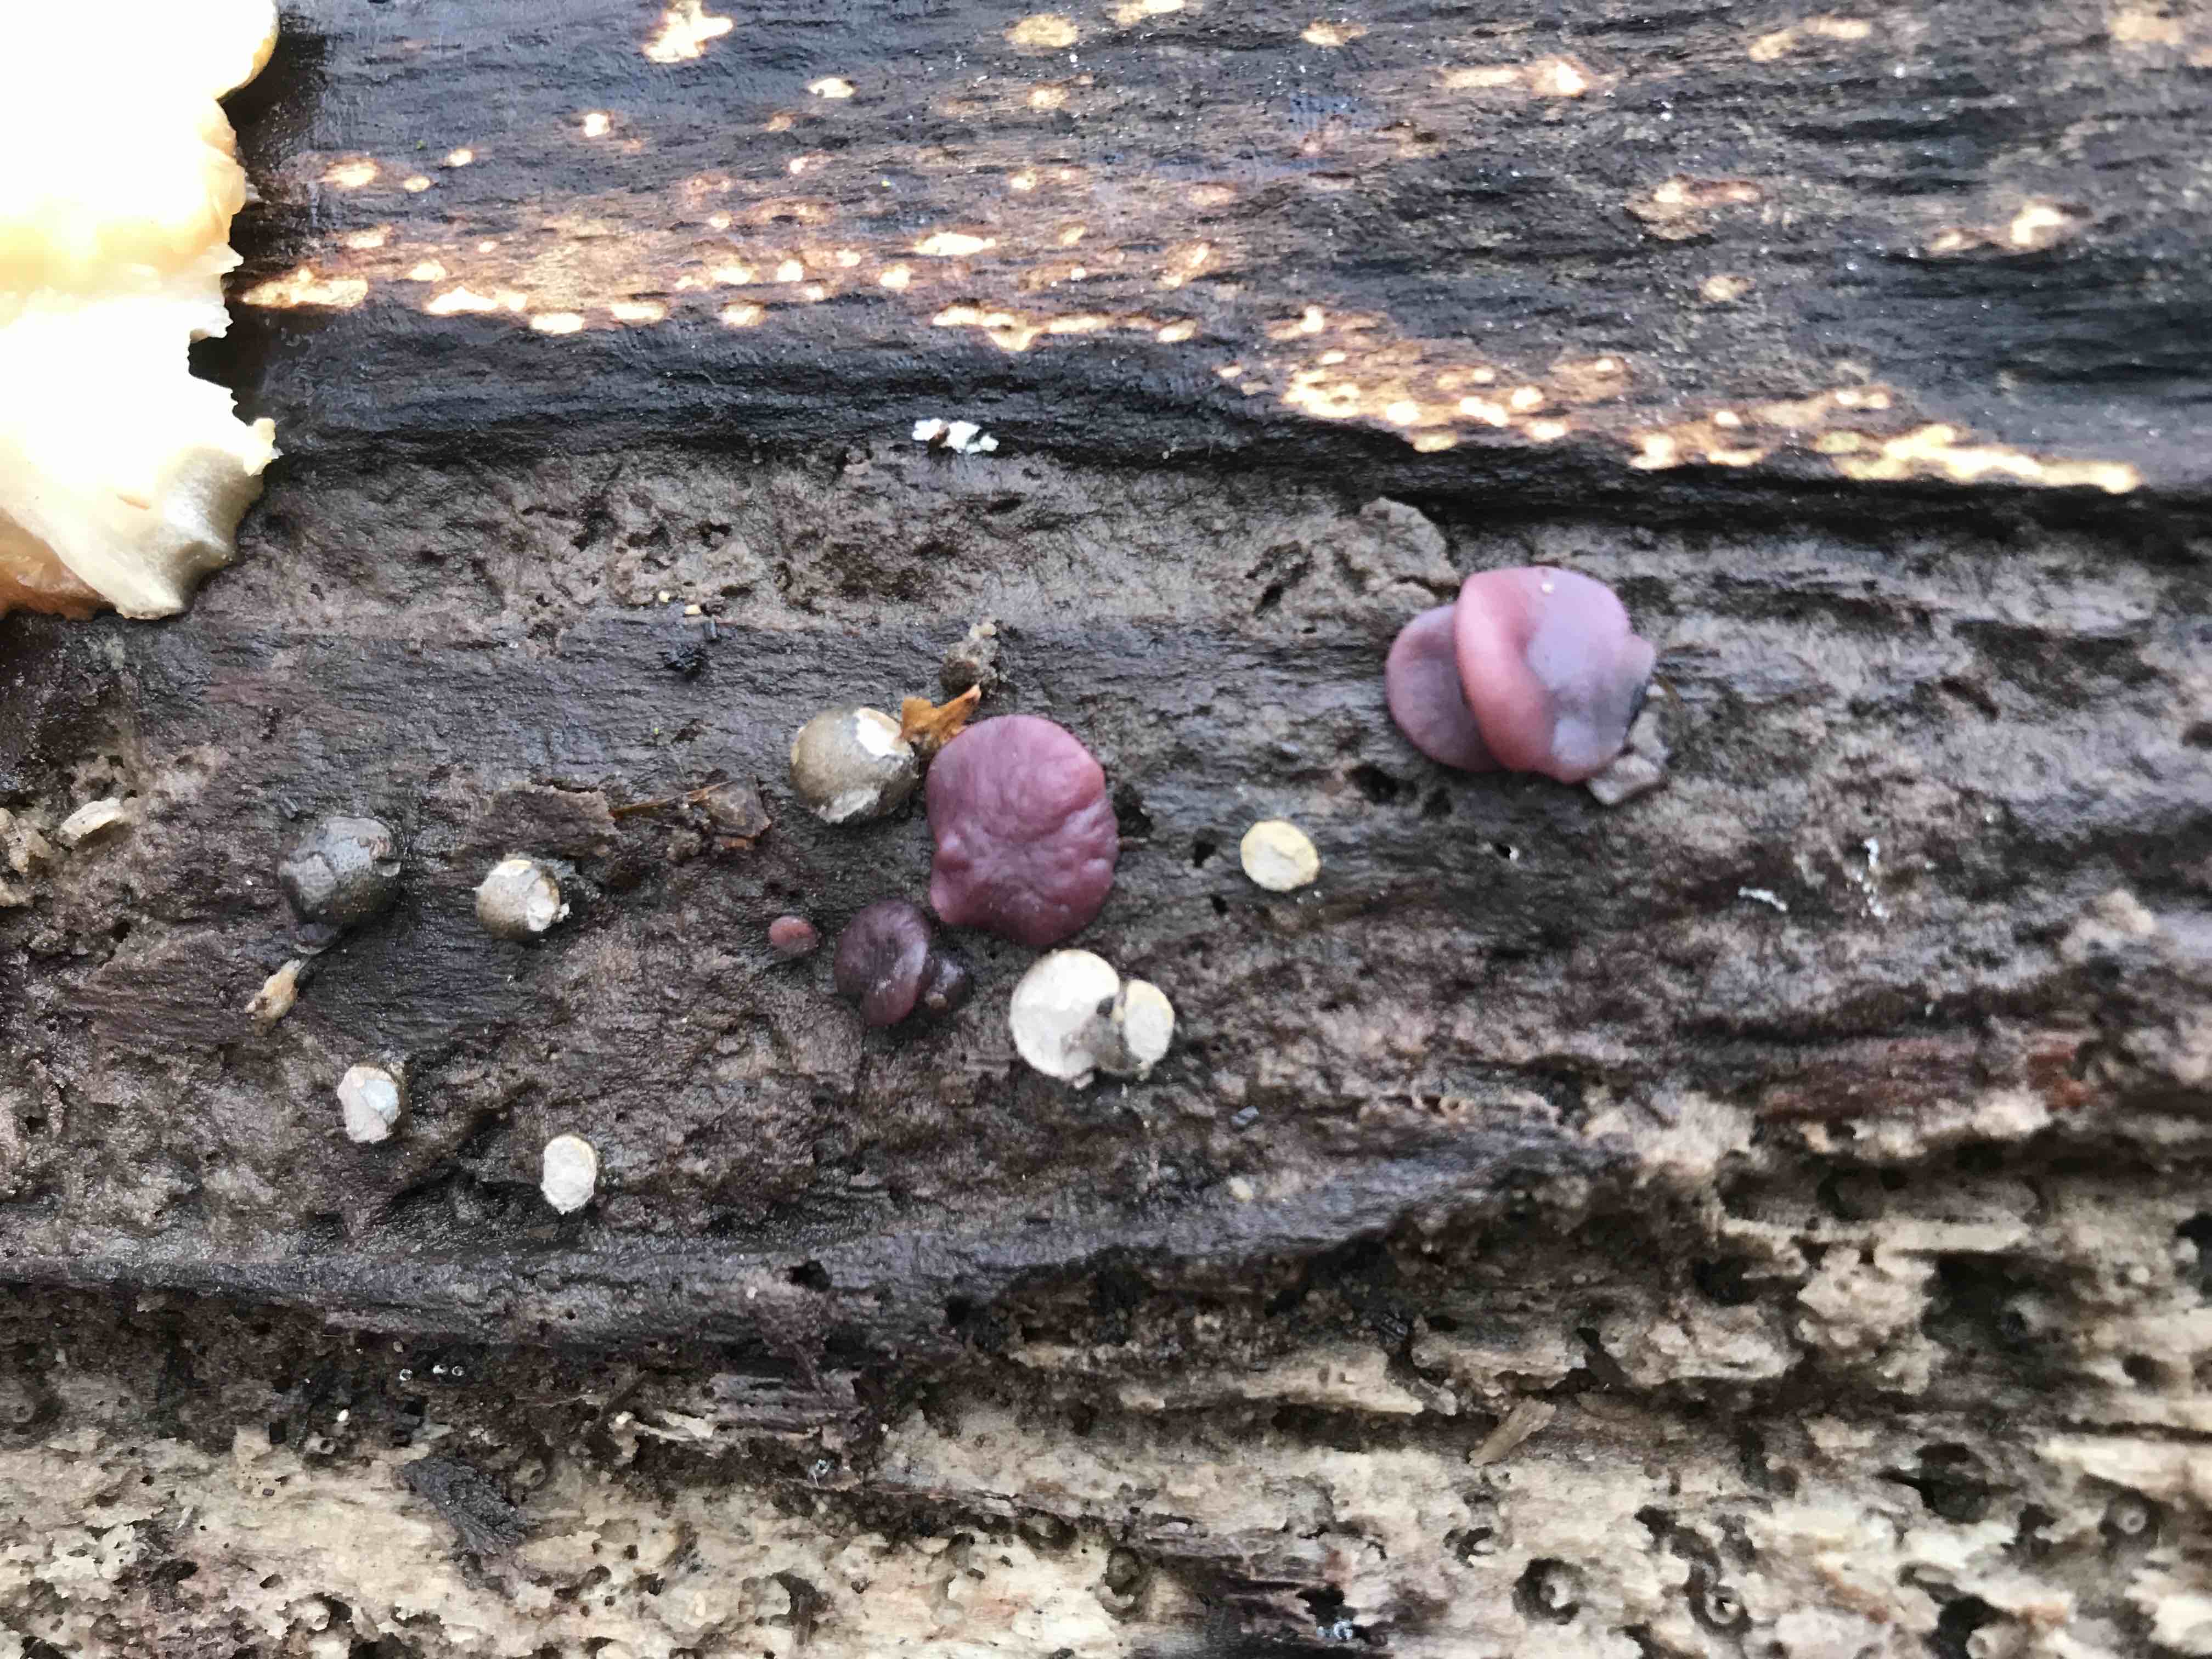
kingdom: Fungi
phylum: Ascomycota
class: Leotiomycetes
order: Helotiales
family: Gelatinodiscaceae
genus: Ascocoryne
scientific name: Ascocoryne cylichnium
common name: stor sejskive
